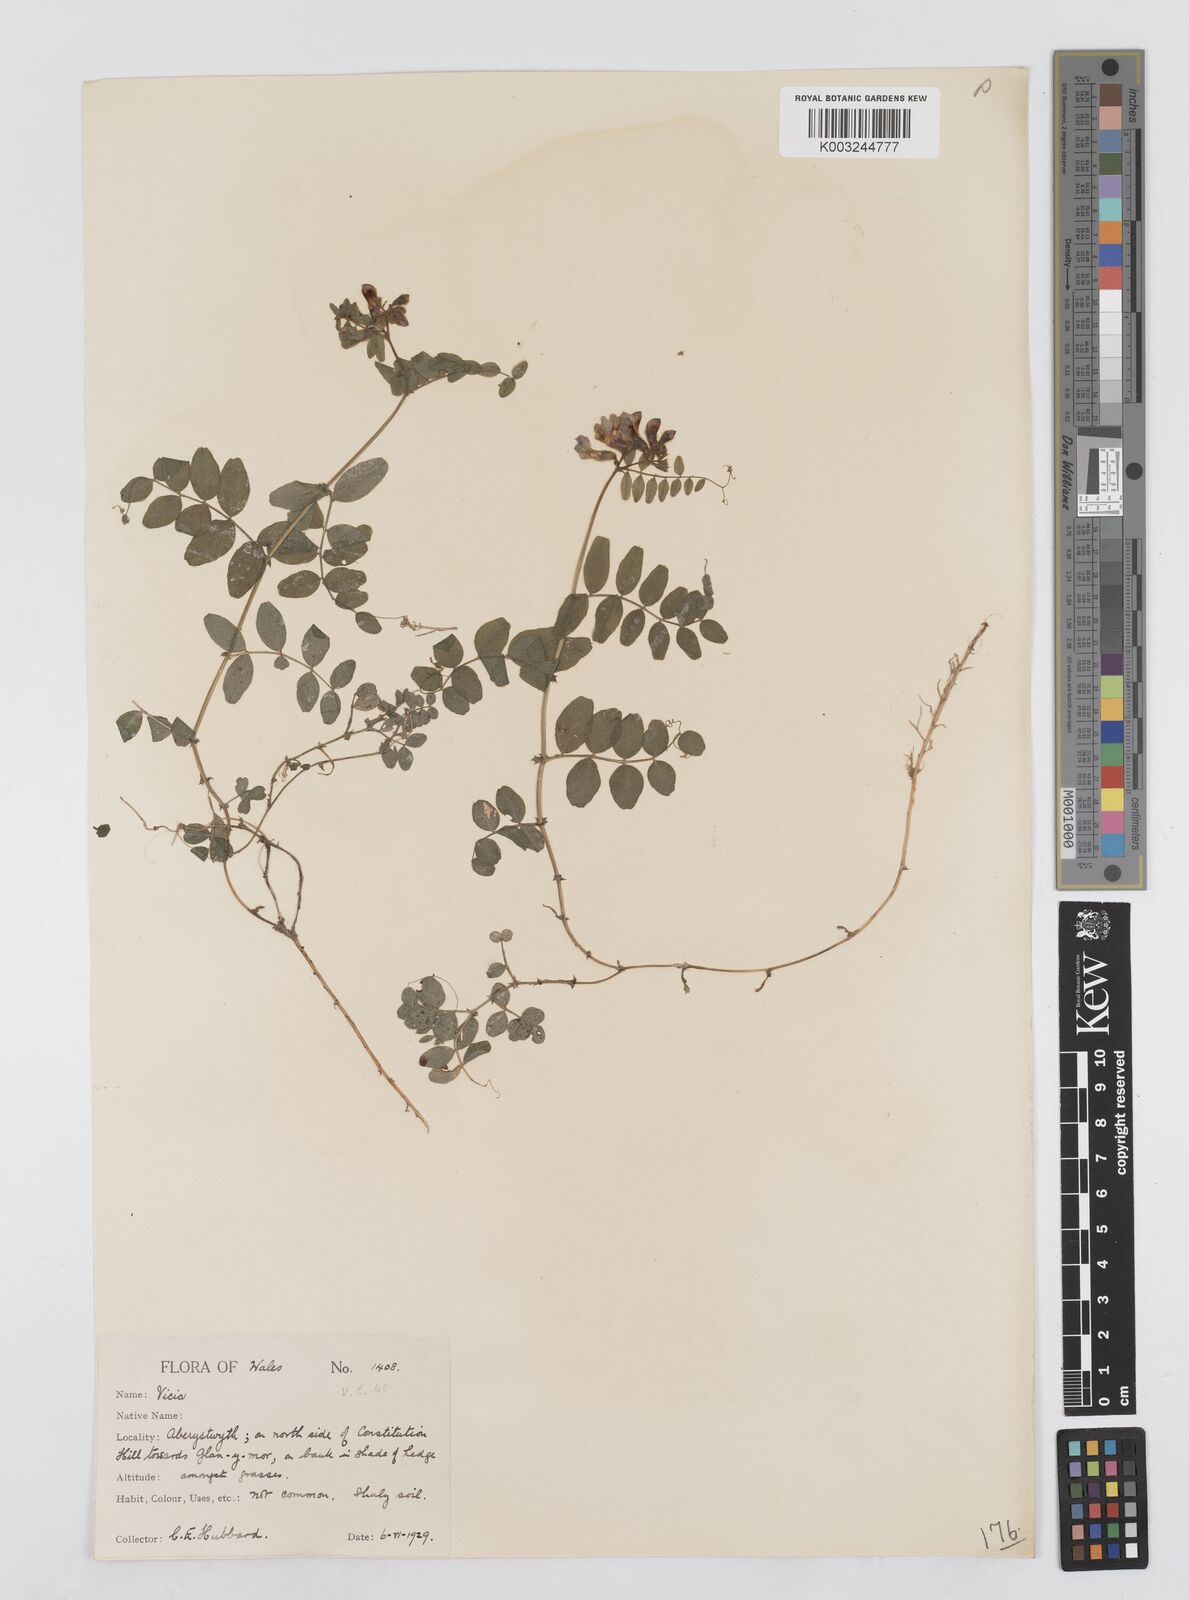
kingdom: Plantae
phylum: Tracheophyta
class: Magnoliopsida
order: Fabales
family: Fabaceae
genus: Vicia
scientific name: Vicia sepium
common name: Bush vetch
